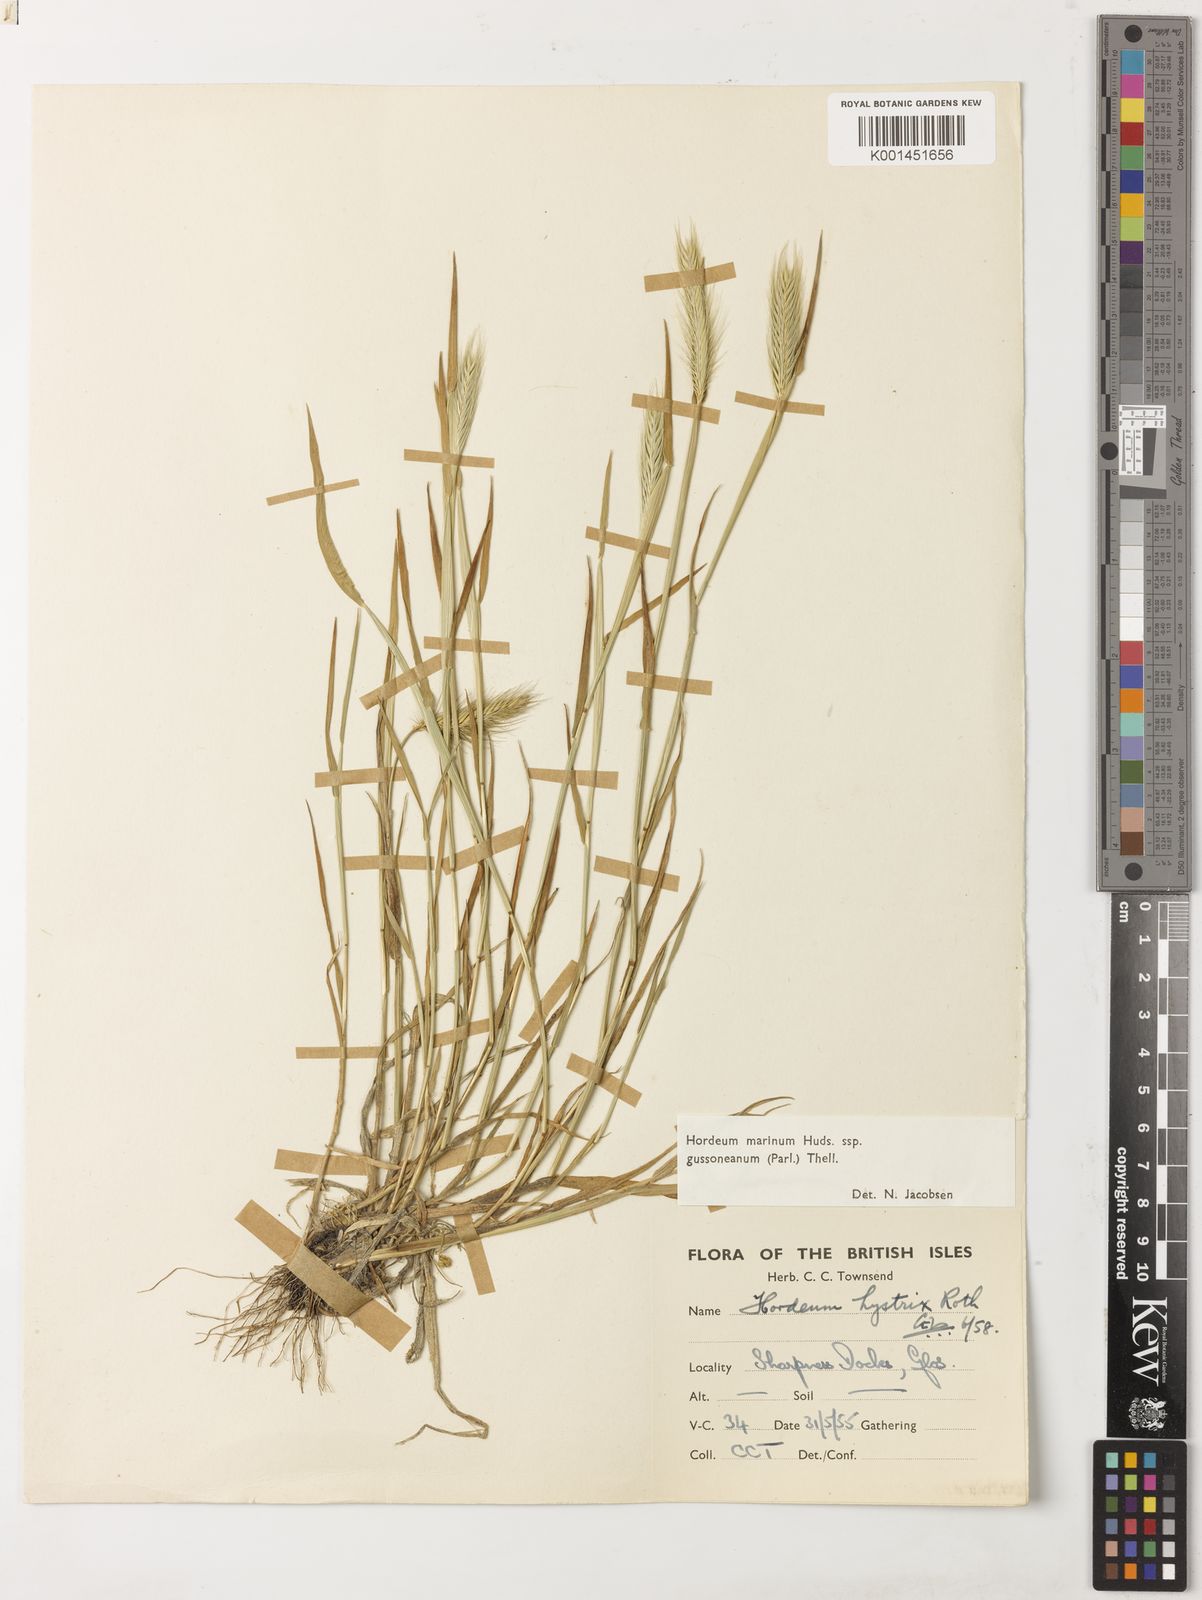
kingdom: Plantae
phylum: Tracheophyta
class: Liliopsida
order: Poales
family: Poaceae
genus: Hordeum
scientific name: Hordeum marinum
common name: Sea barley
